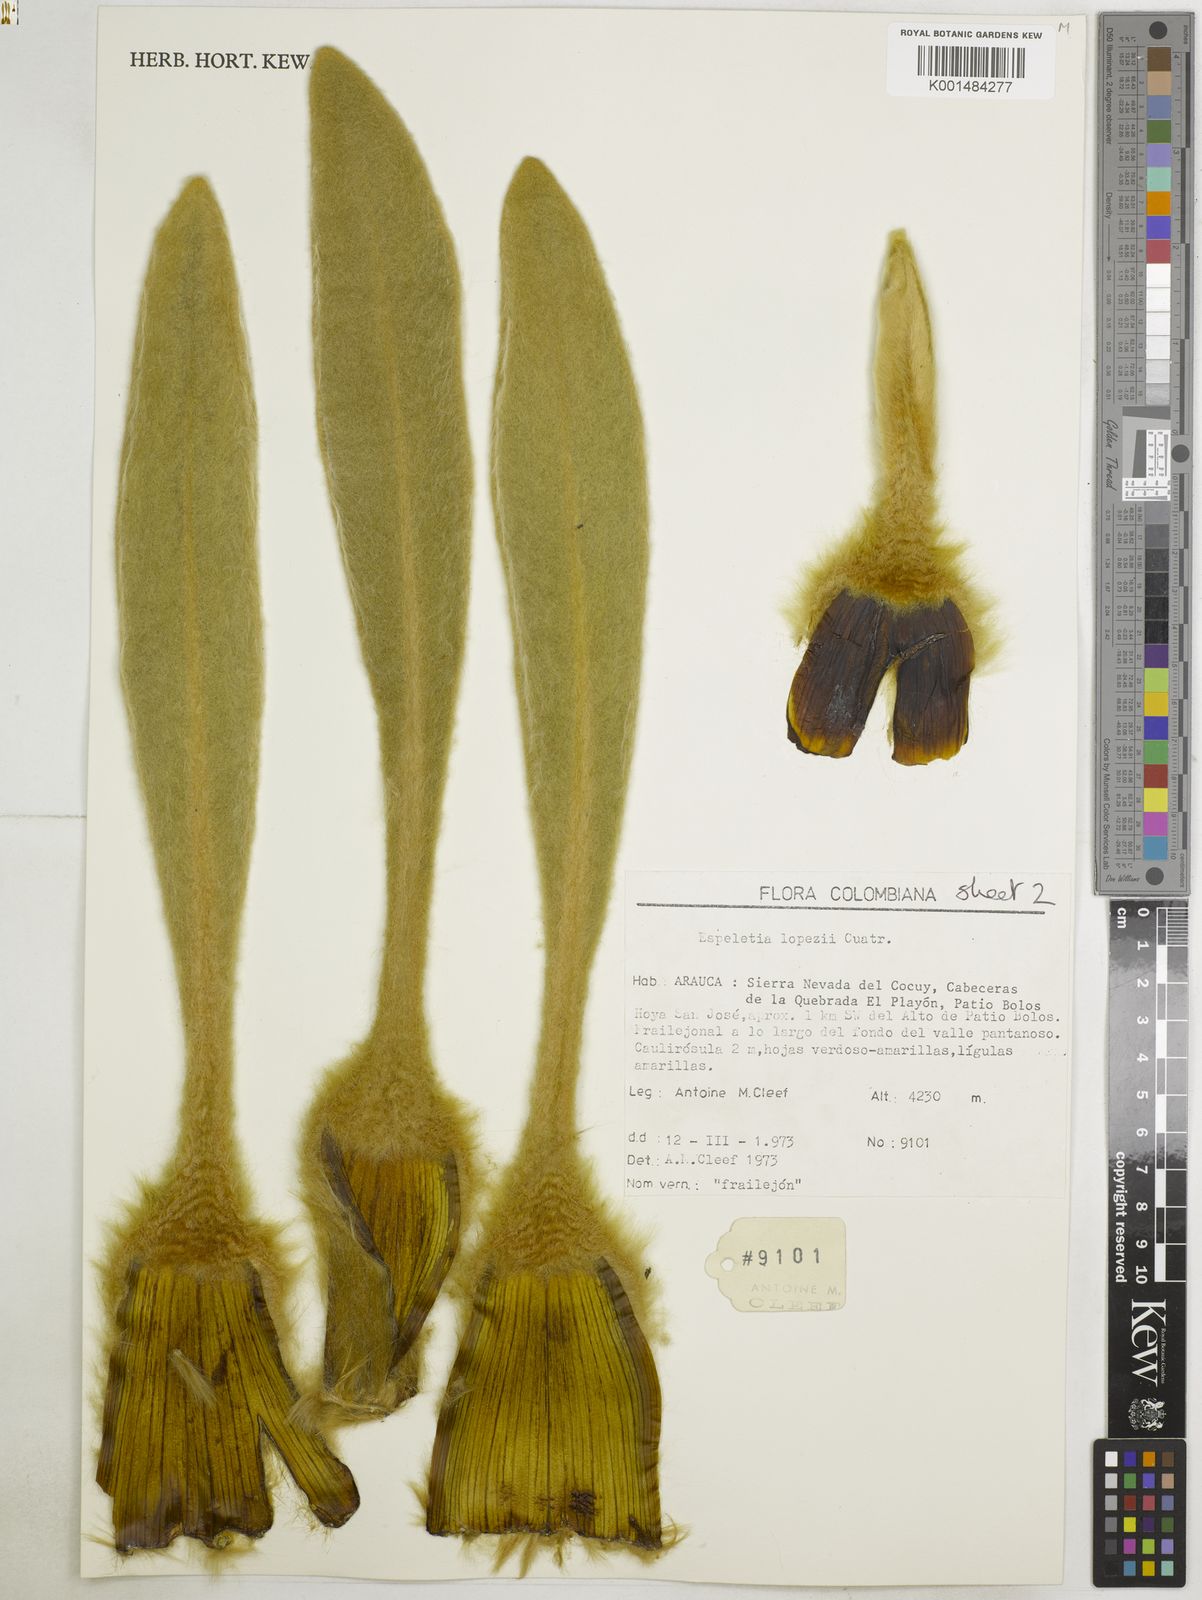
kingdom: Plantae
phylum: Tracheophyta
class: Magnoliopsida
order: Asterales
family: Asteraceae
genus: Espeletia
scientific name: Espeletia lopezii
